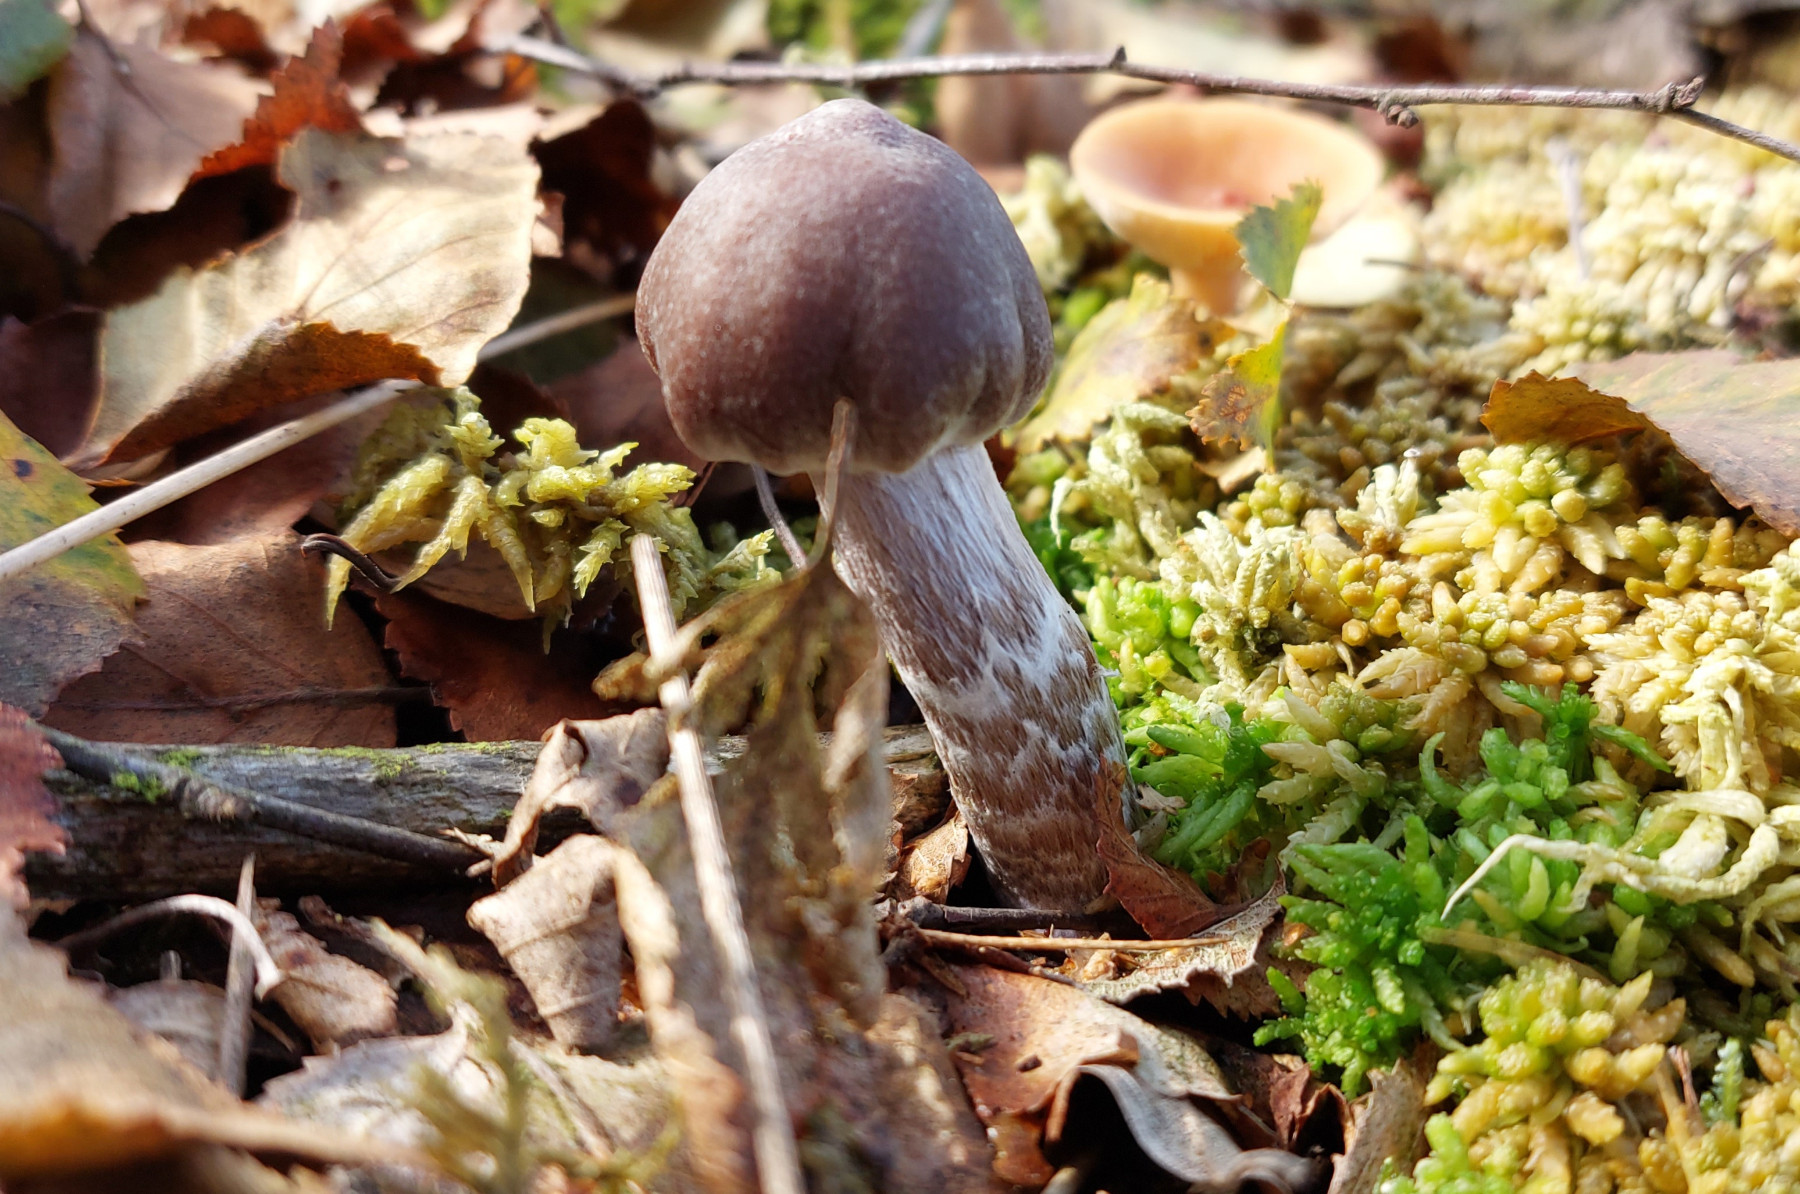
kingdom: Fungi
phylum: Basidiomycota
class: Agaricomycetes
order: Agaricales
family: Cortinariaceae
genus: Cortinarius
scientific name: Cortinarius flabellus
